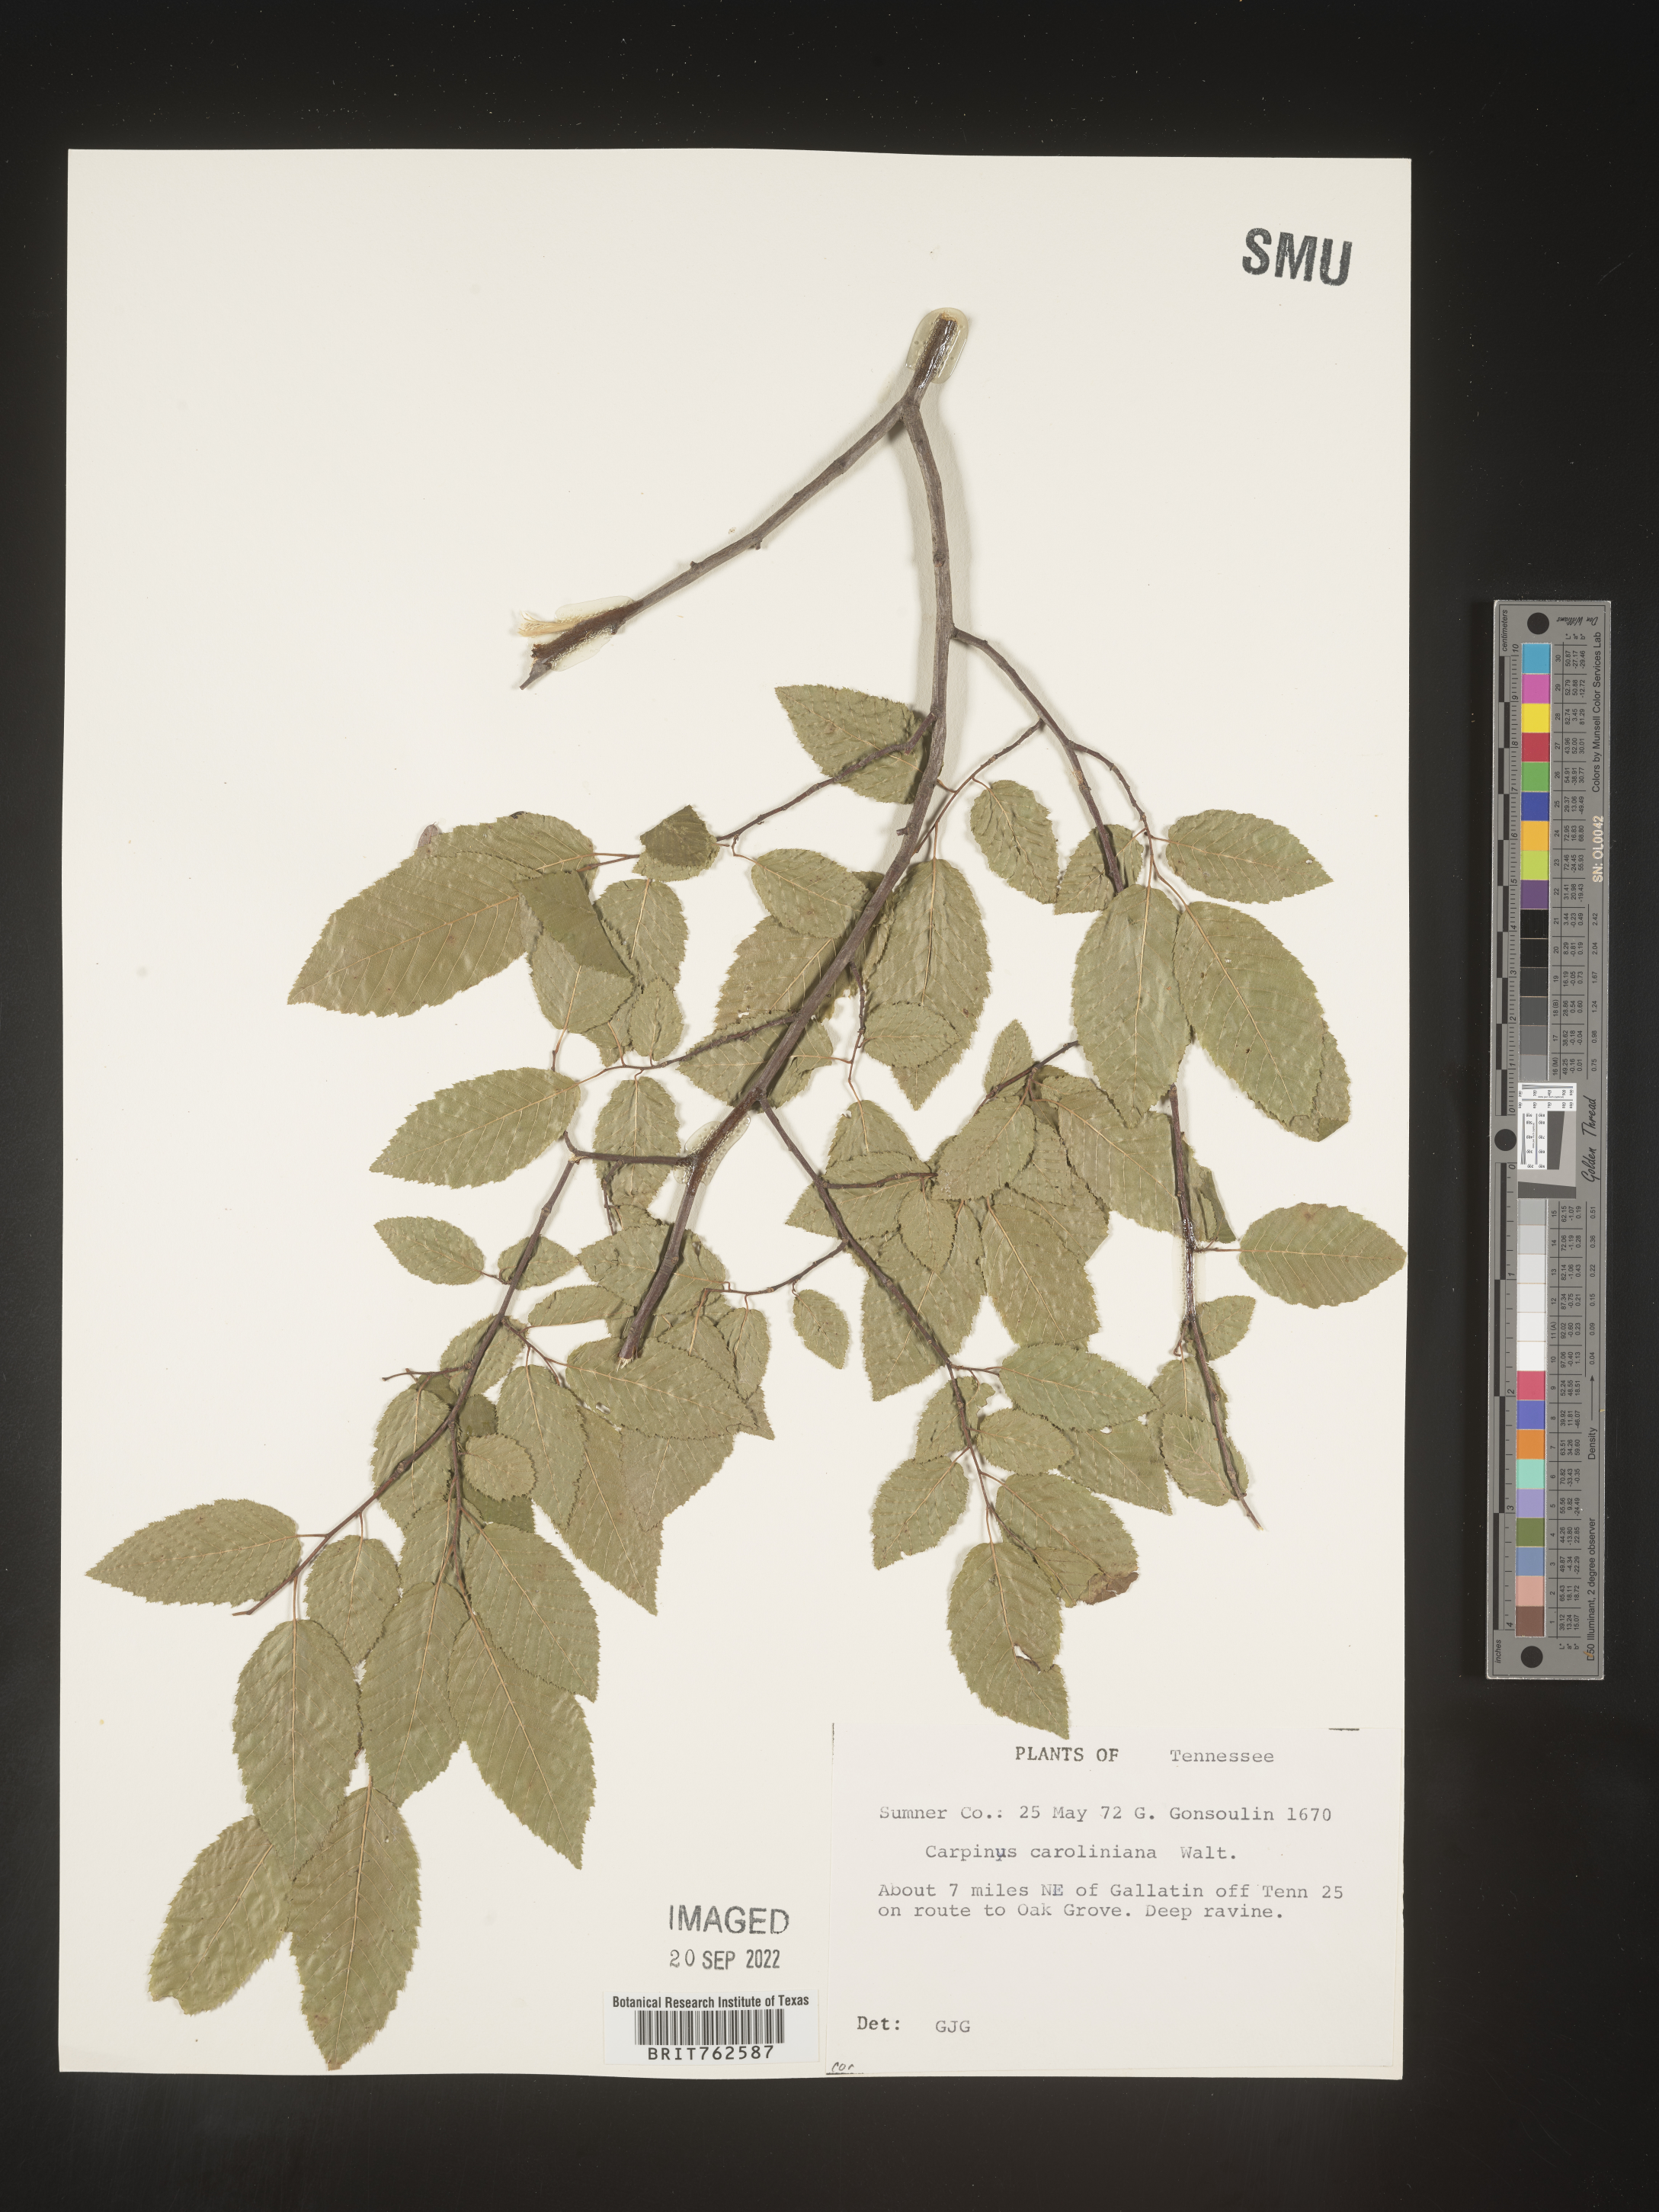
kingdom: Plantae
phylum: Tracheophyta
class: Magnoliopsida
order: Fagales
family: Betulaceae
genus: Carpinus
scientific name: Carpinus caroliniana
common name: American hornbeam
